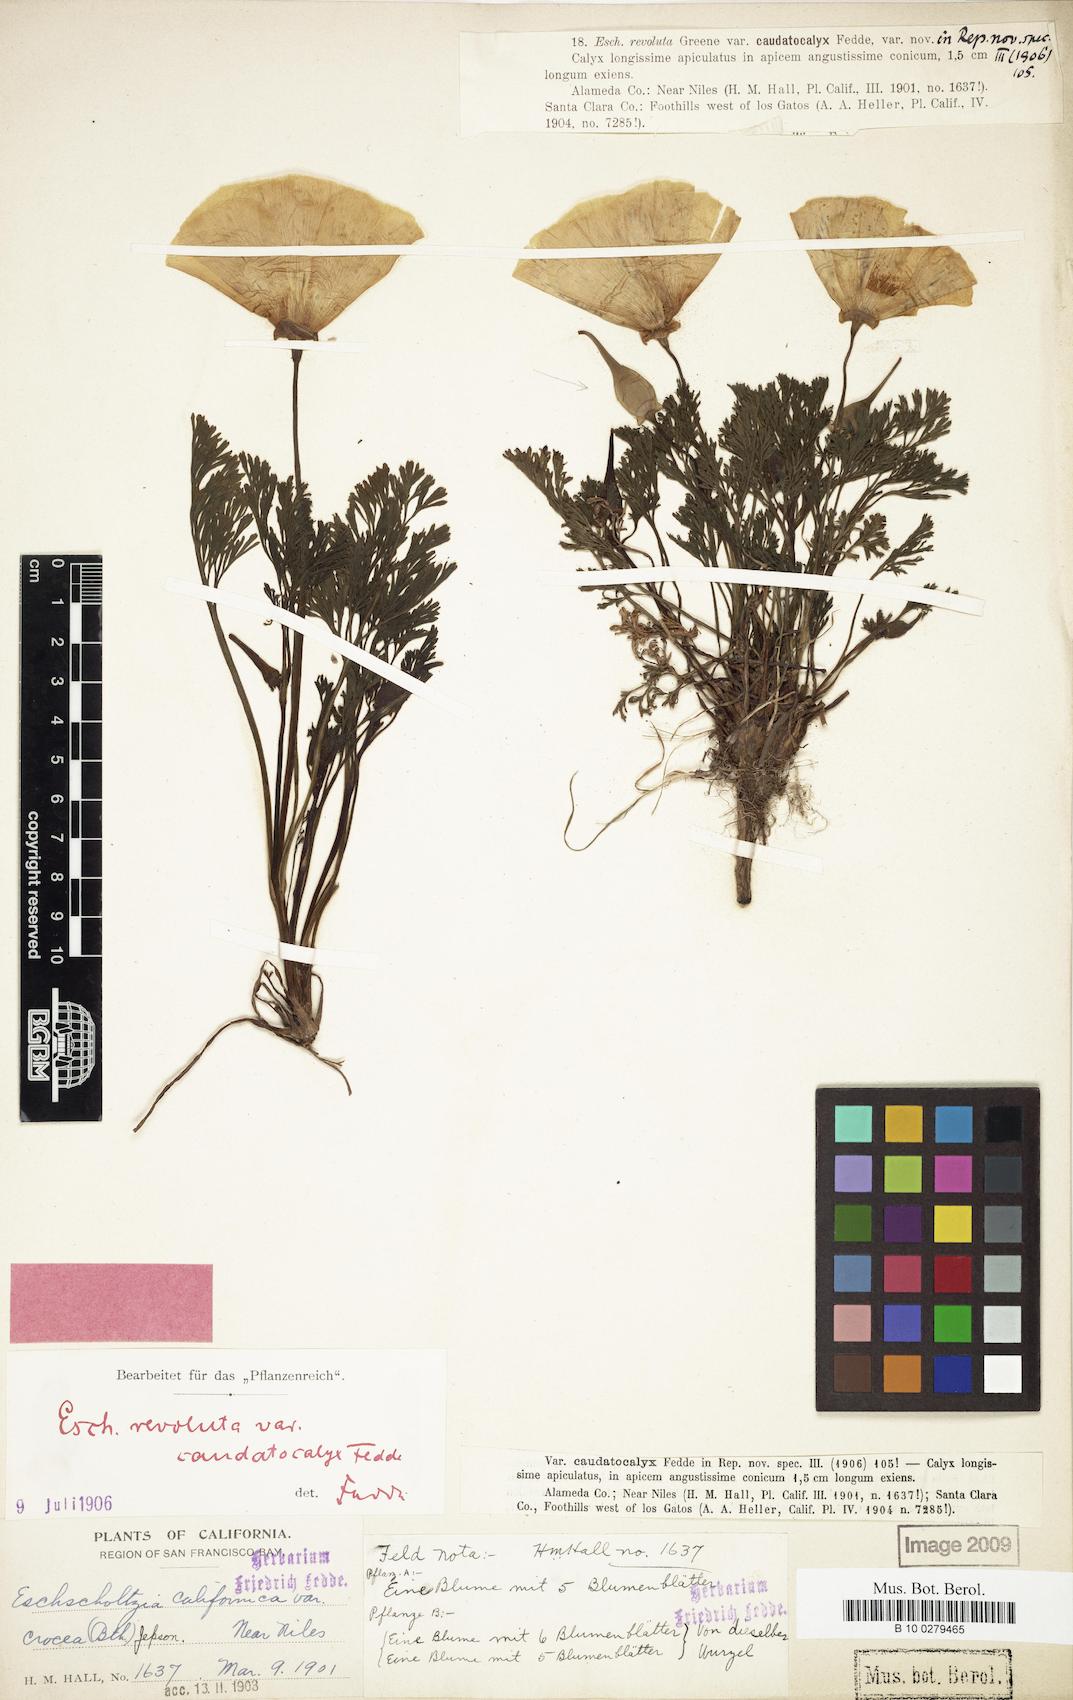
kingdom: Plantae
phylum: Tracheophyta
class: Magnoliopsida
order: Ranunculales
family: Papaveraceae
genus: Eschscholzia
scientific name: Eschscholzia californica
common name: California poppy
